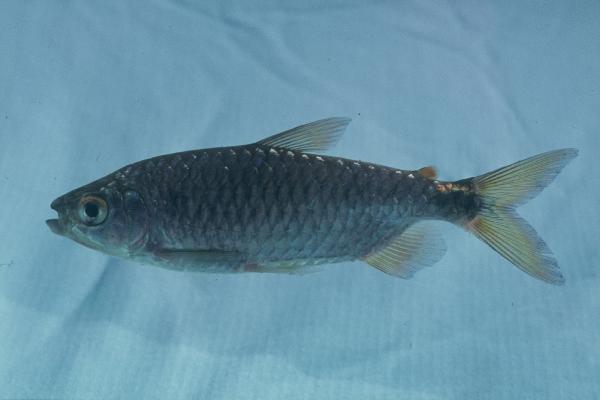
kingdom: Animalia
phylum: Chordata
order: Characiformes
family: Alestidae
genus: Brycinus
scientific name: Brycinus imberi
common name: Imberi
